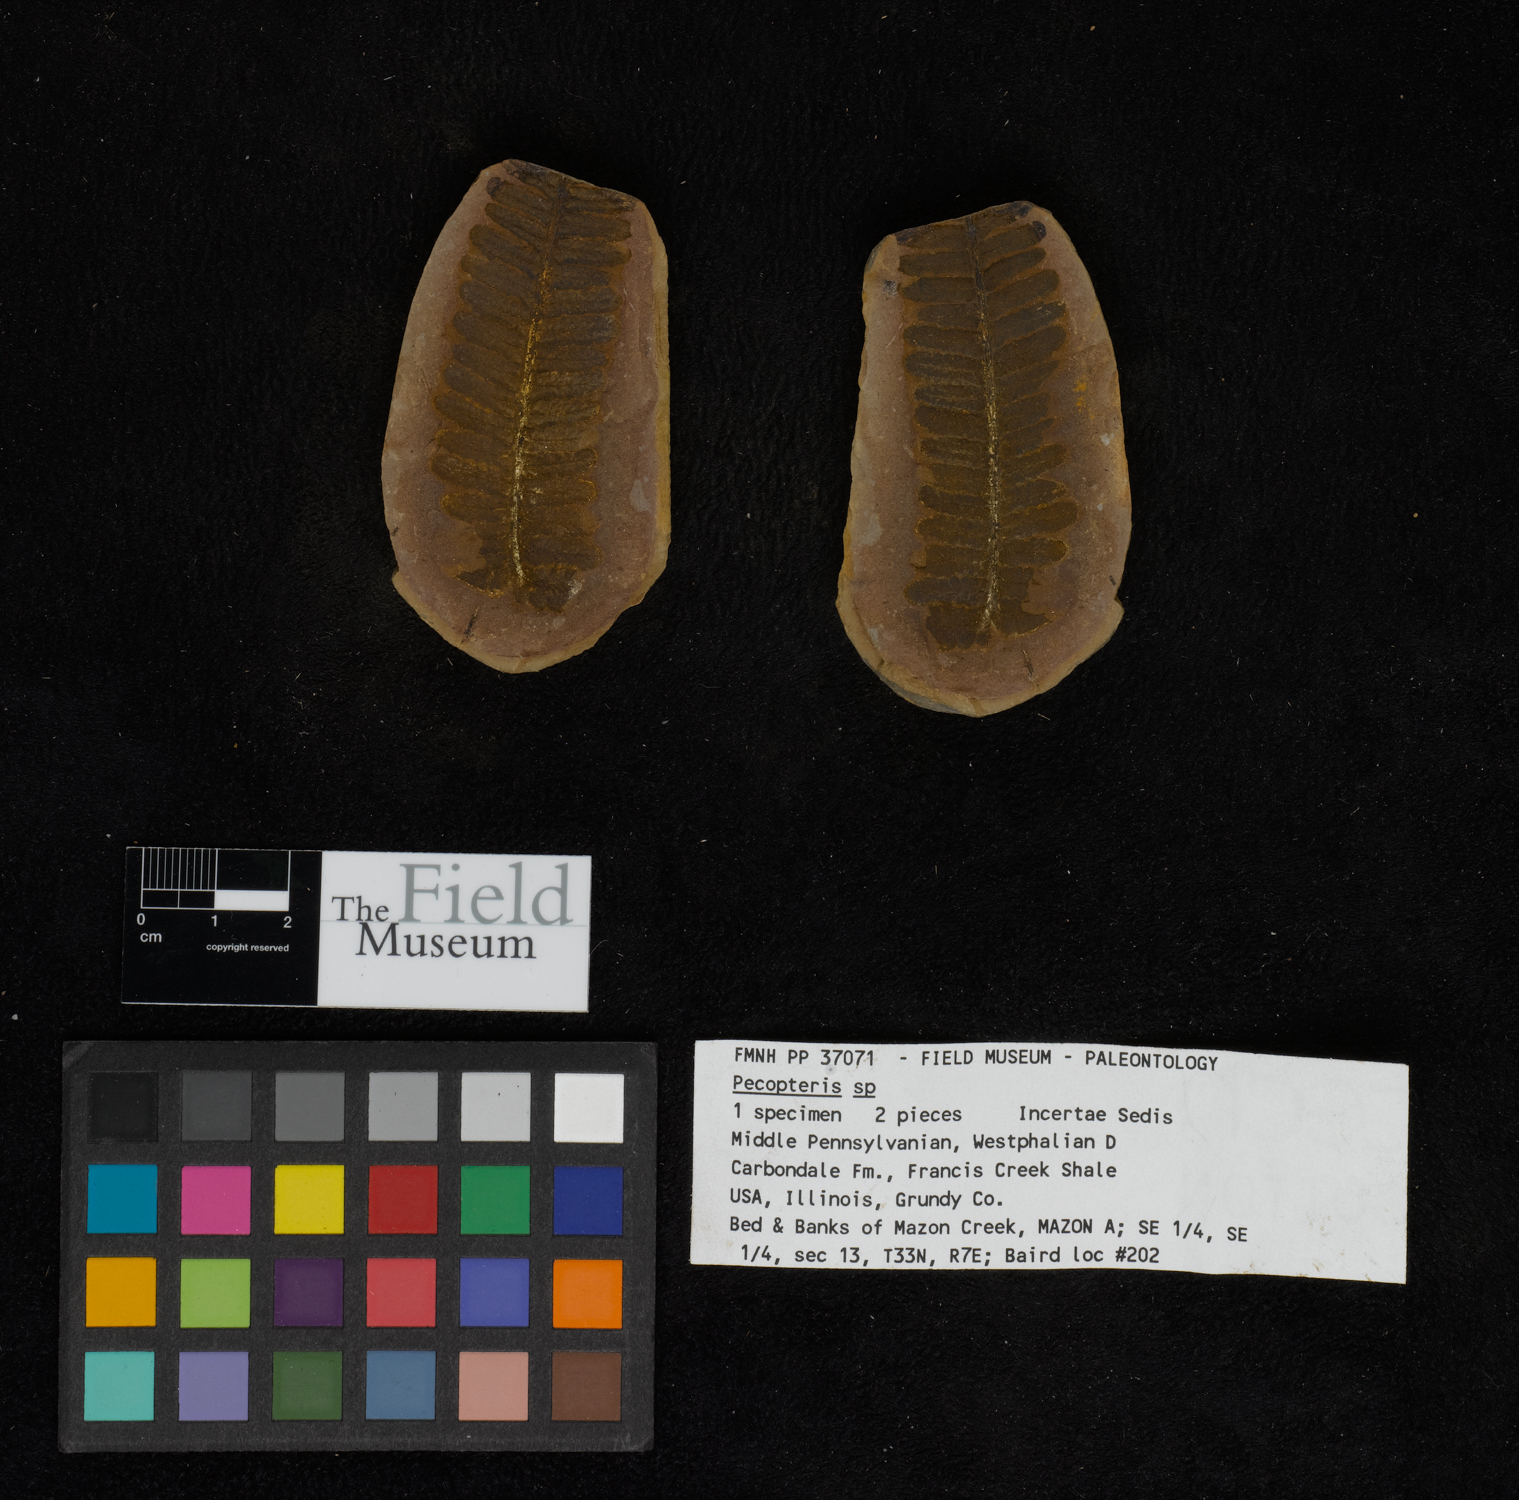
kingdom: Plantae
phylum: Tracheophyta
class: Polypodiopsida
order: Marattiales
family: Asterothecaceae
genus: Pecopteris
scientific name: Pecopteris
